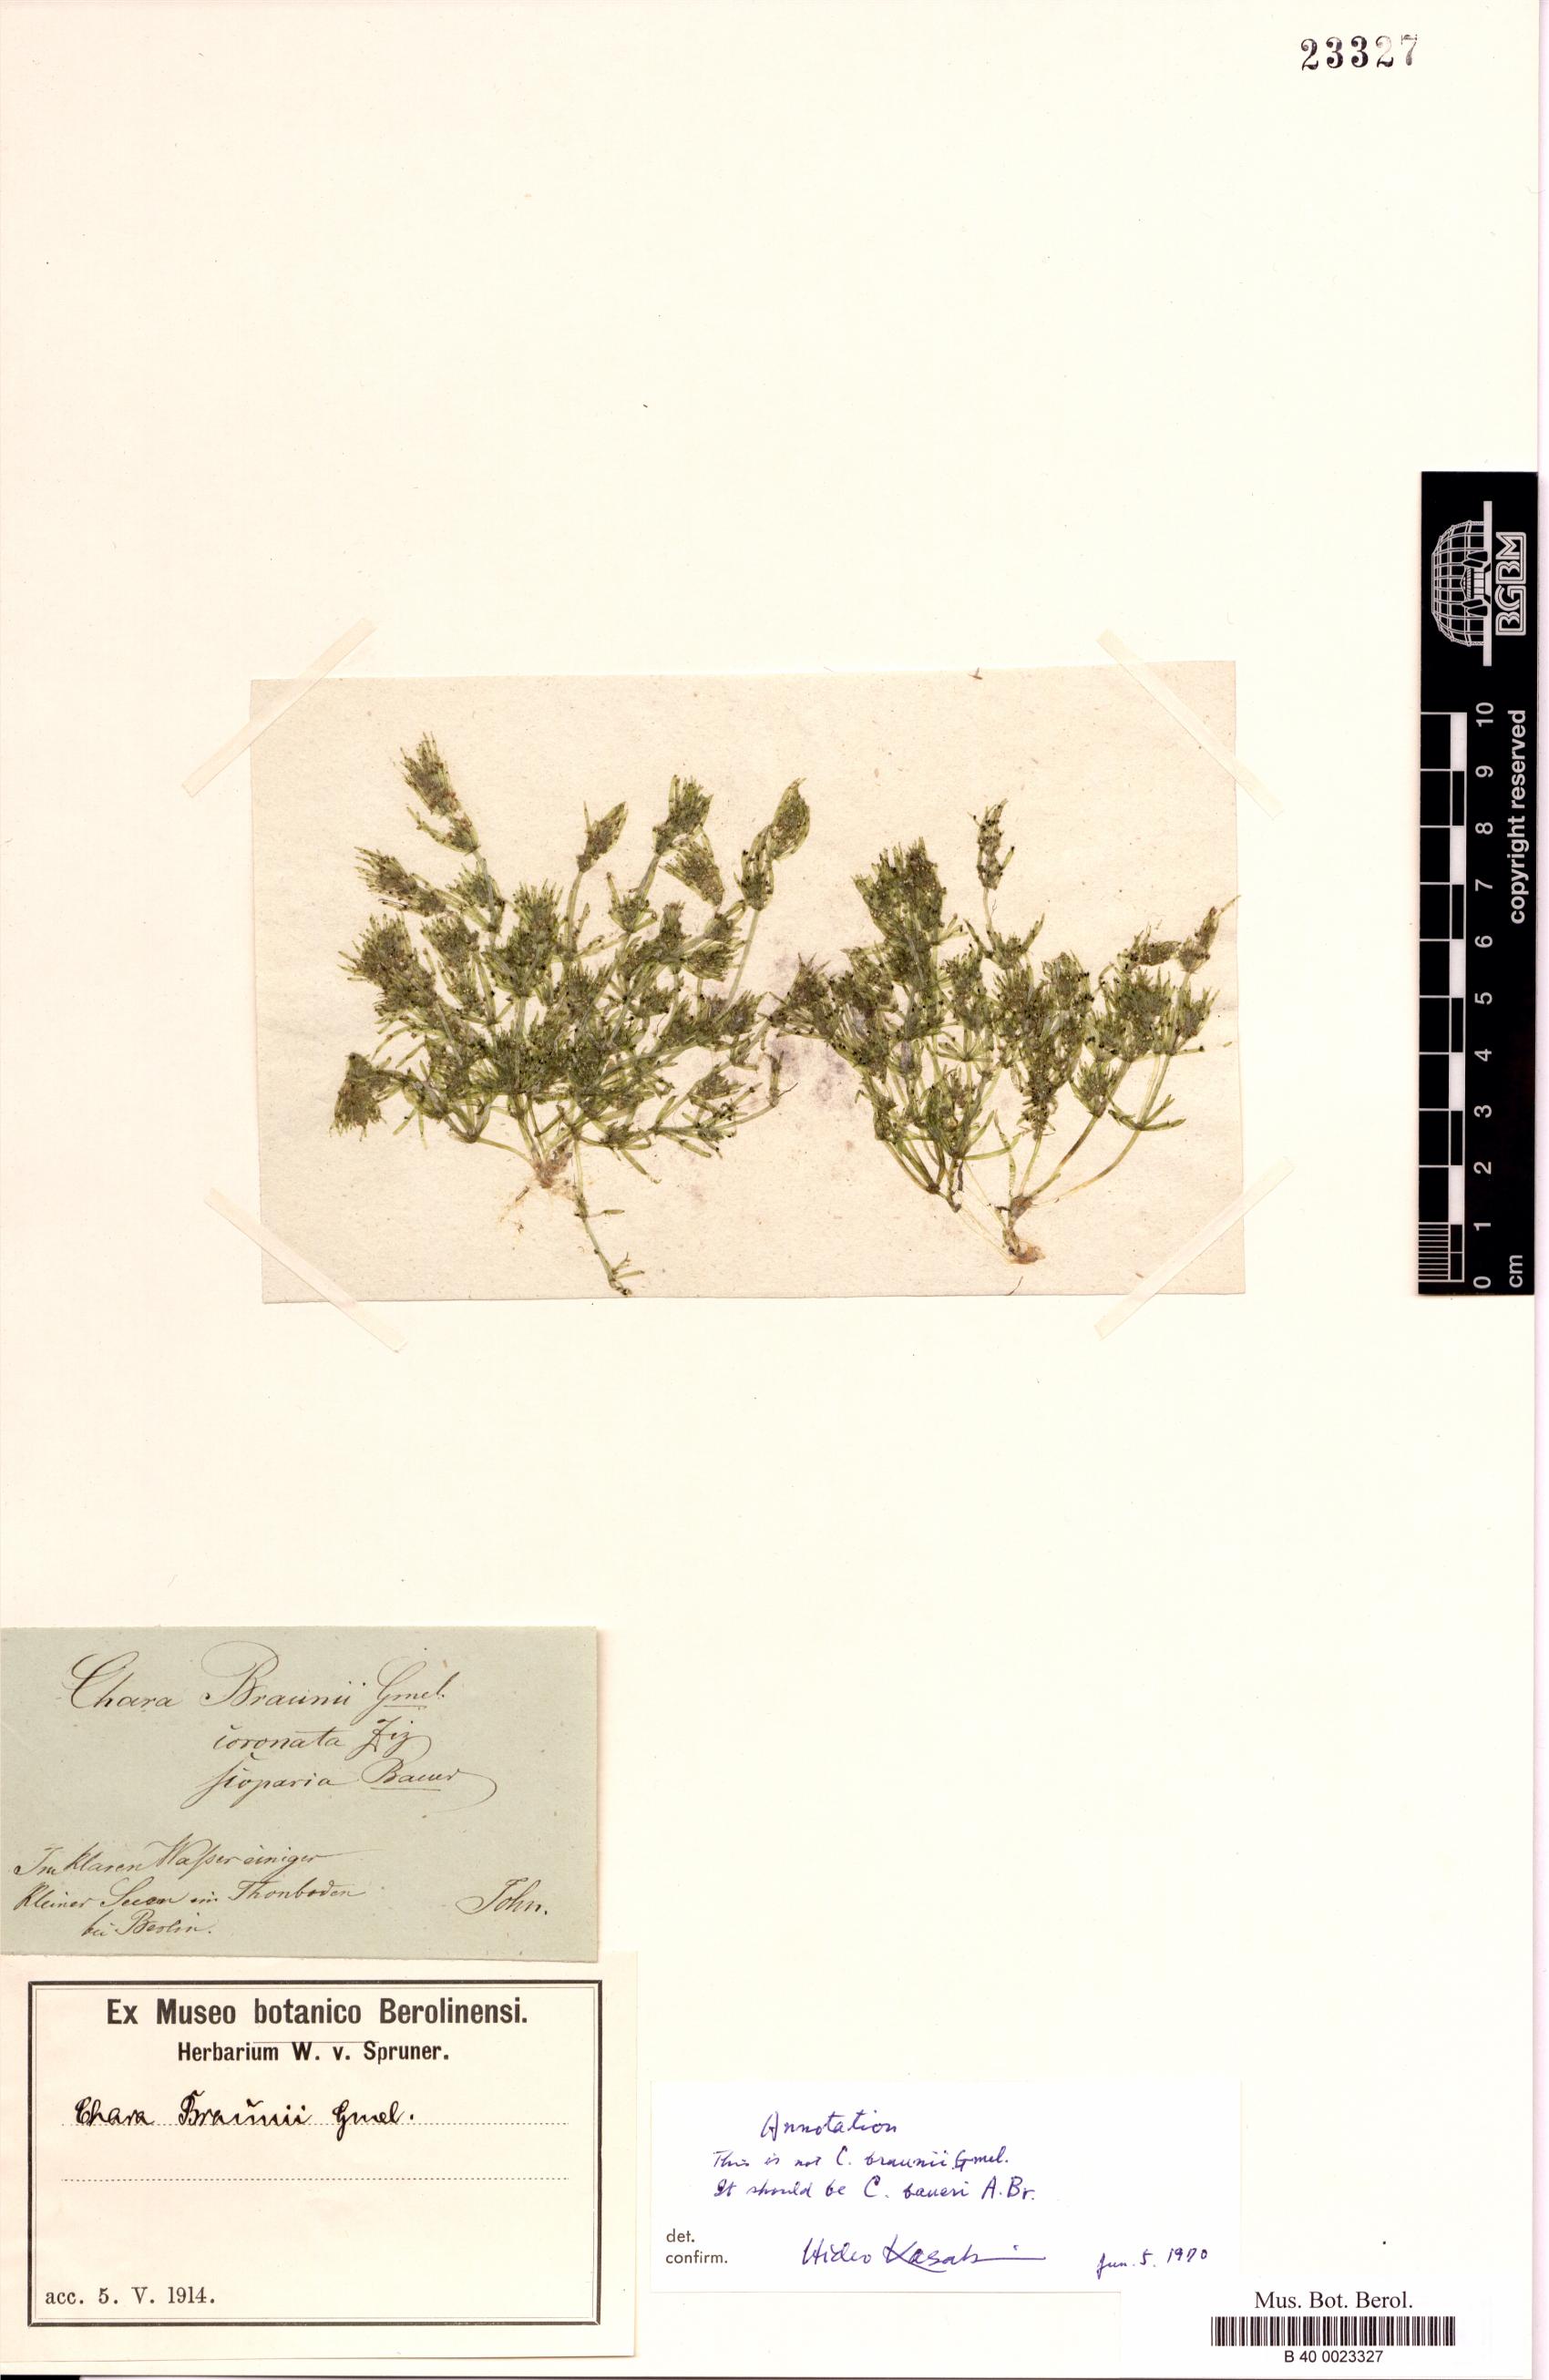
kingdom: Plantae
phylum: Charophyta
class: Charophyceae
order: Charales
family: Characeae
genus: Chara
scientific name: Chara baueri
